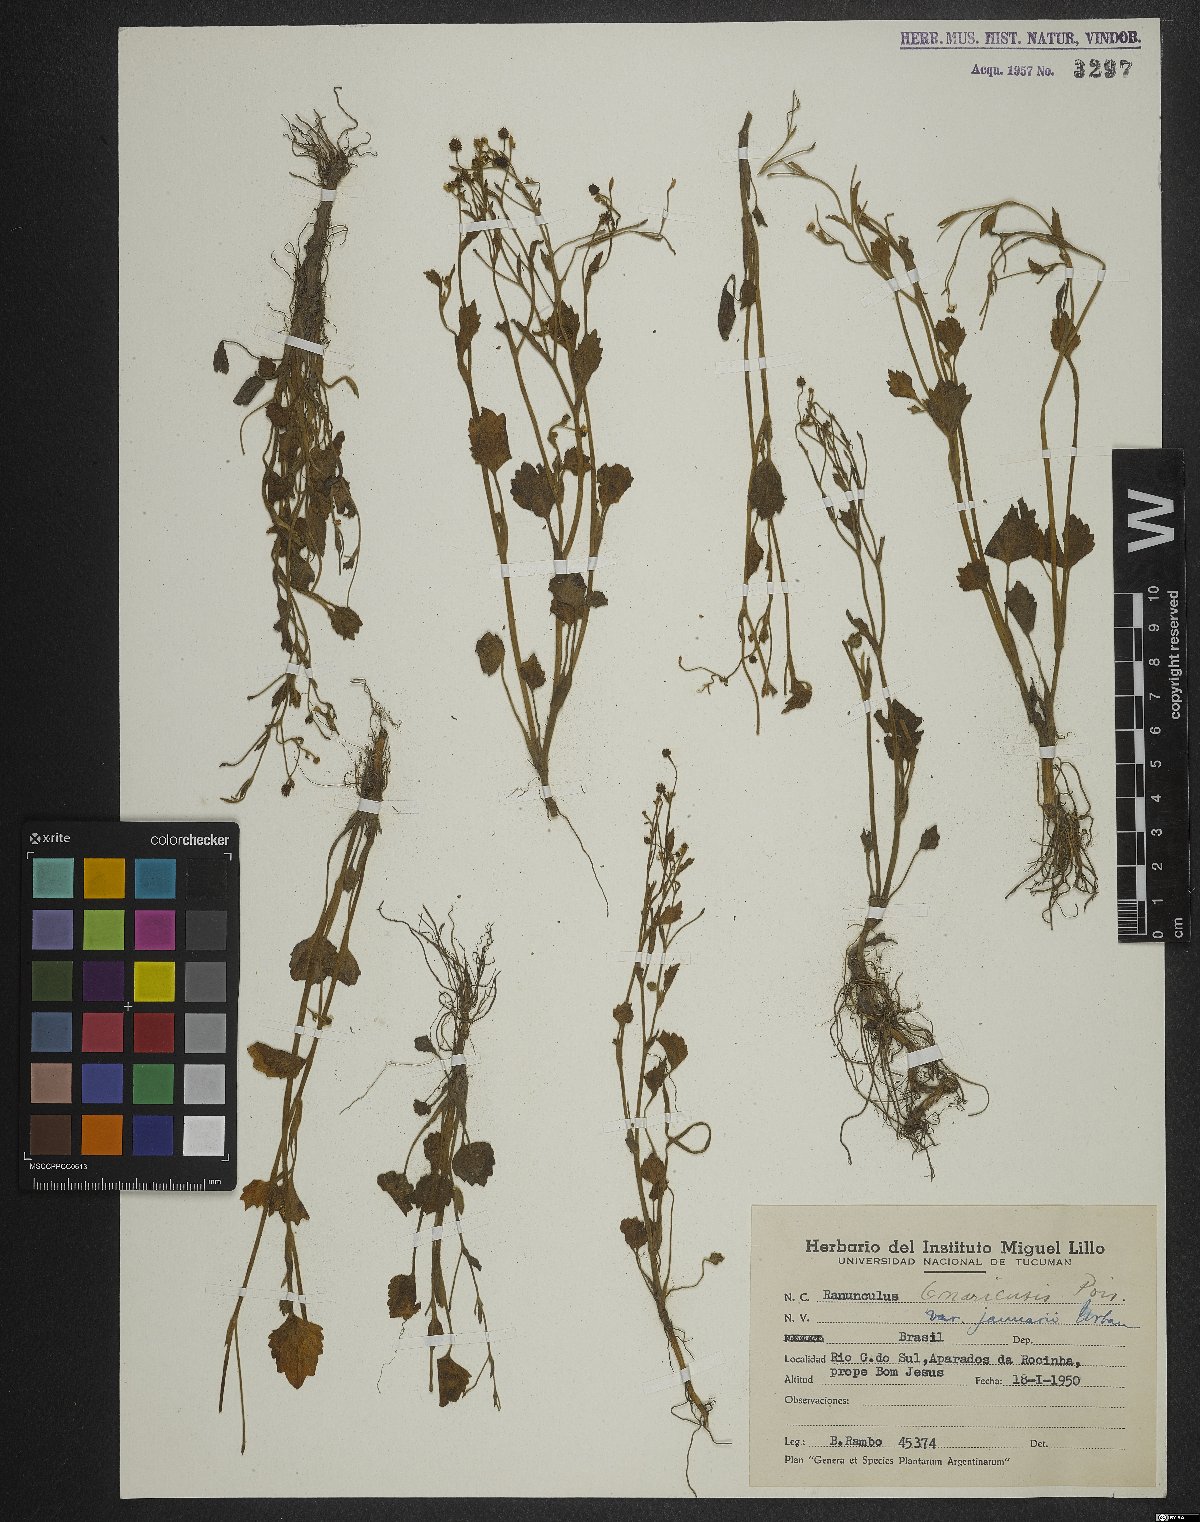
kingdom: Plantae
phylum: Tracheophyta
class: Magnoliopsida
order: Ranunculales
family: Ranunculaceae
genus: Ranunculus
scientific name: Ranunculus bonariensis
